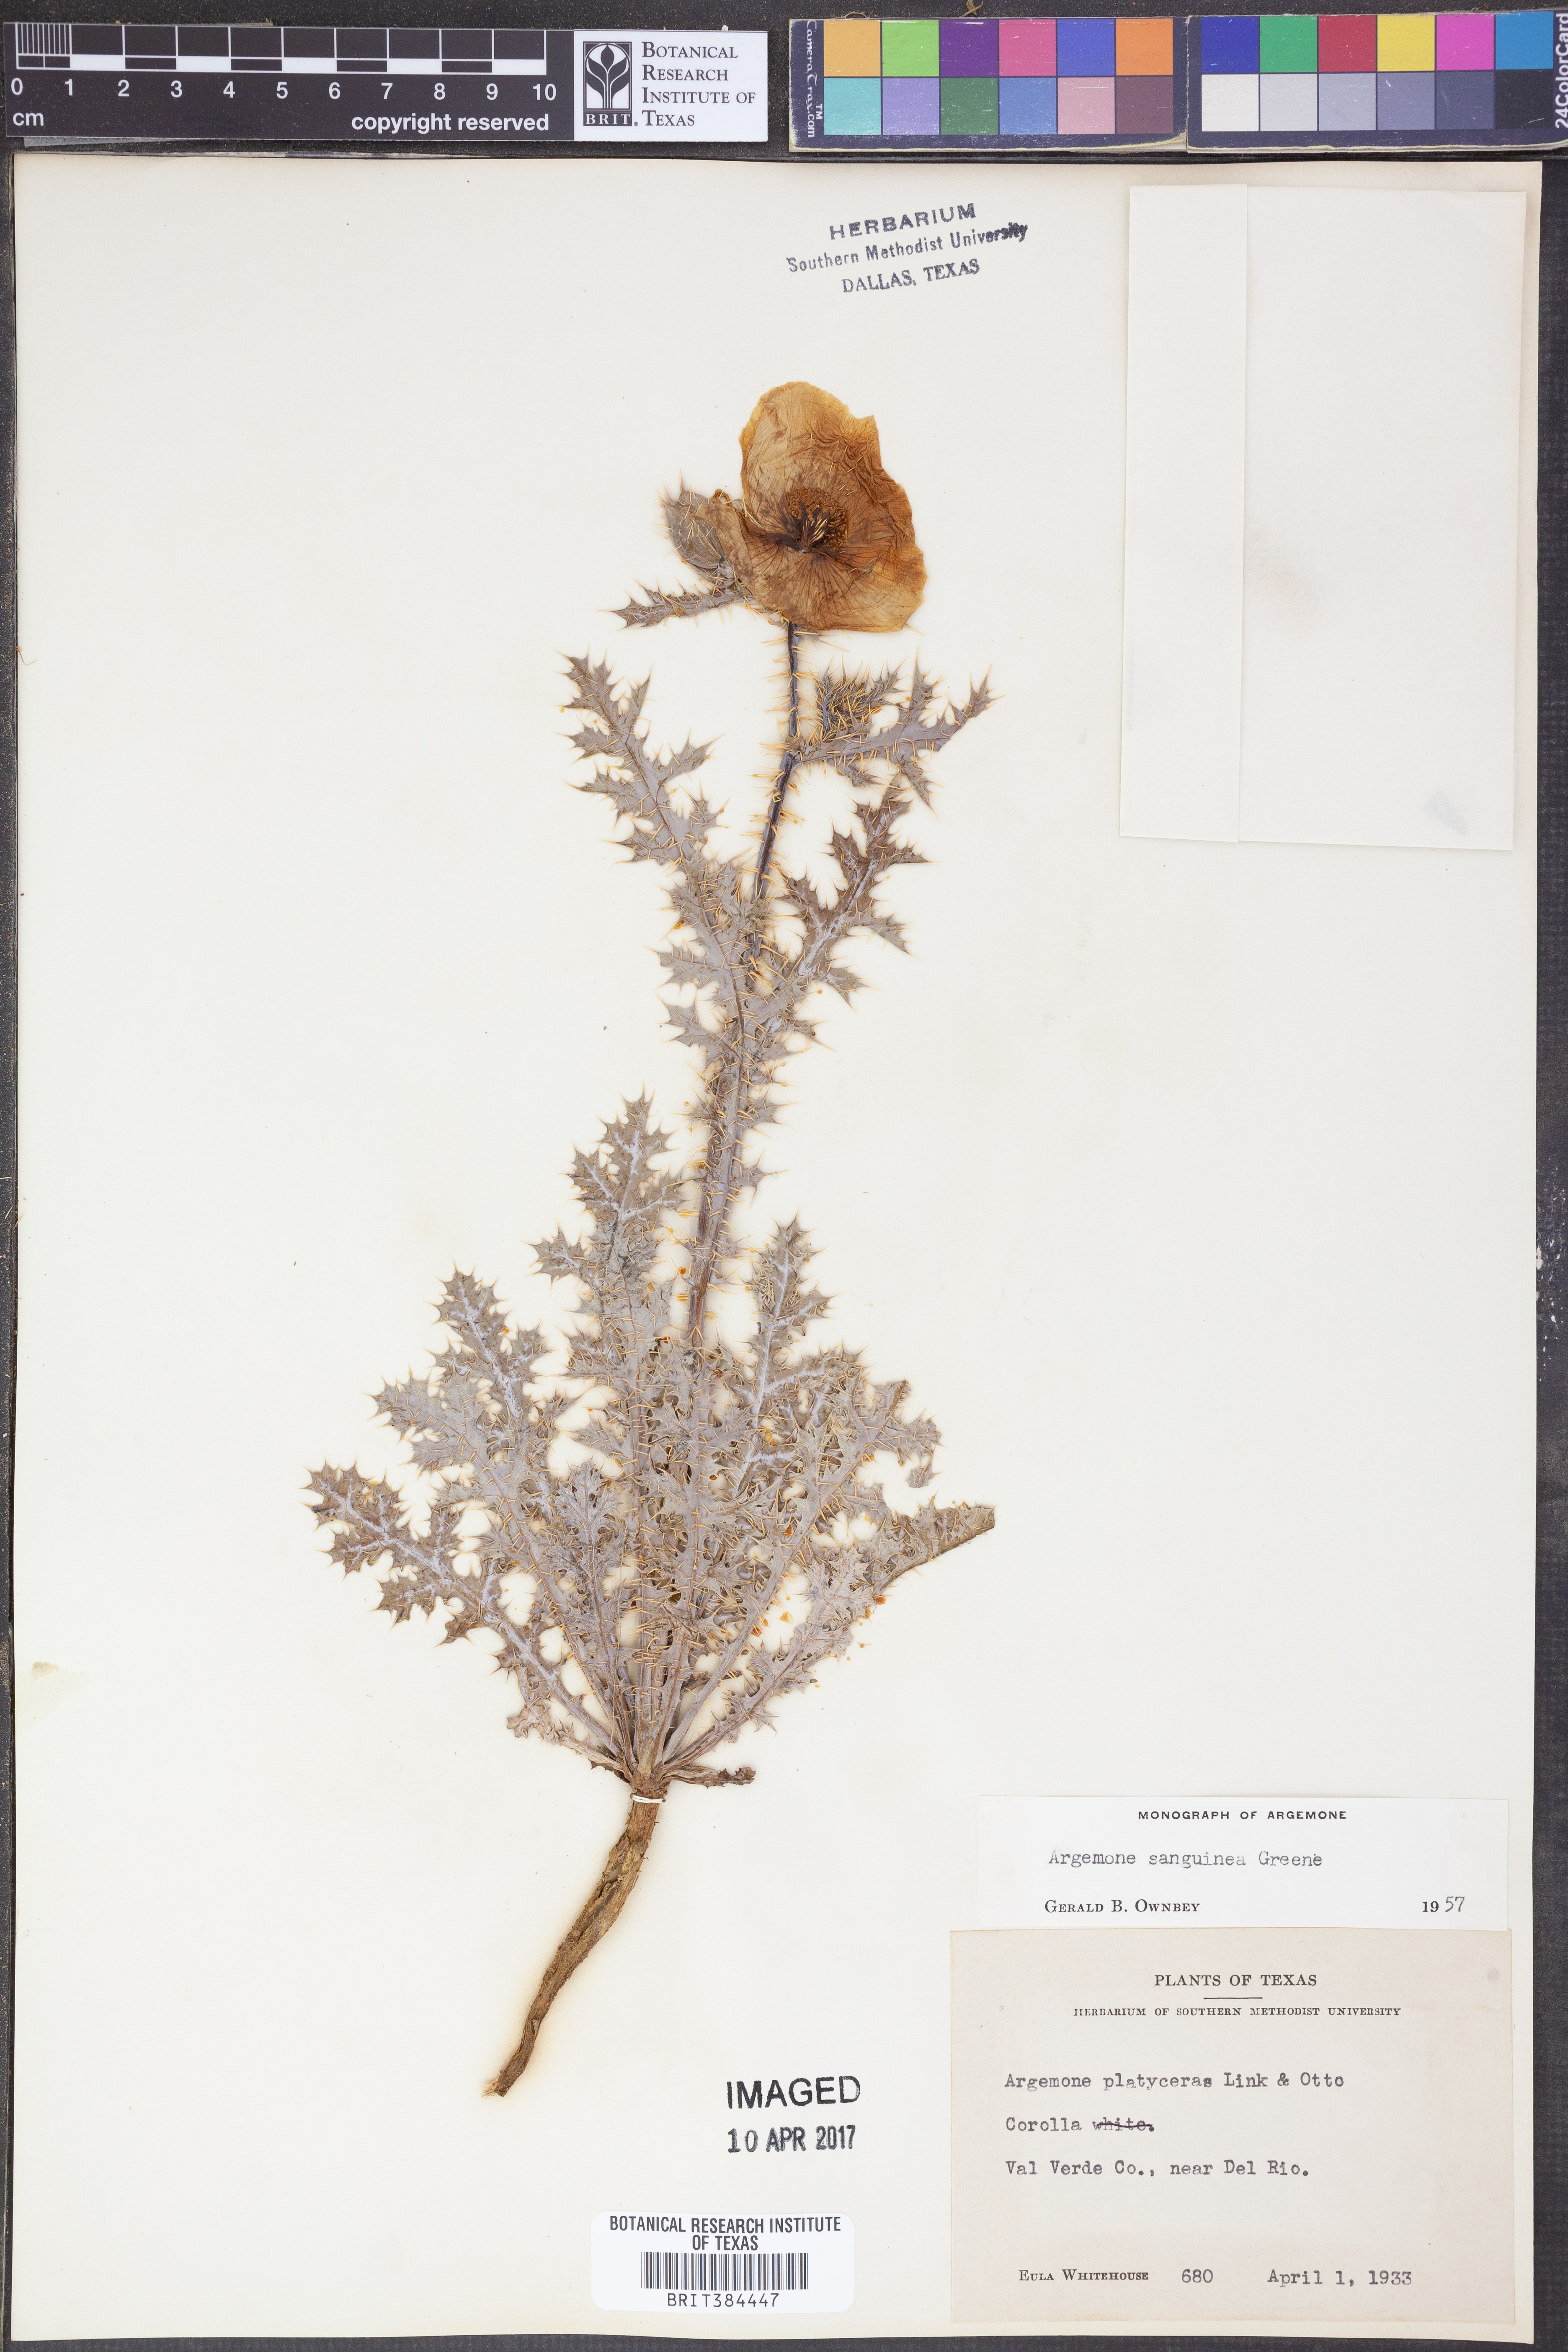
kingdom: Plantae
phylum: Tracheophyta
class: Magnoliopsida
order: Ranunculales
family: Papaveraceae
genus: Argemone
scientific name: Argemone sanguinea
